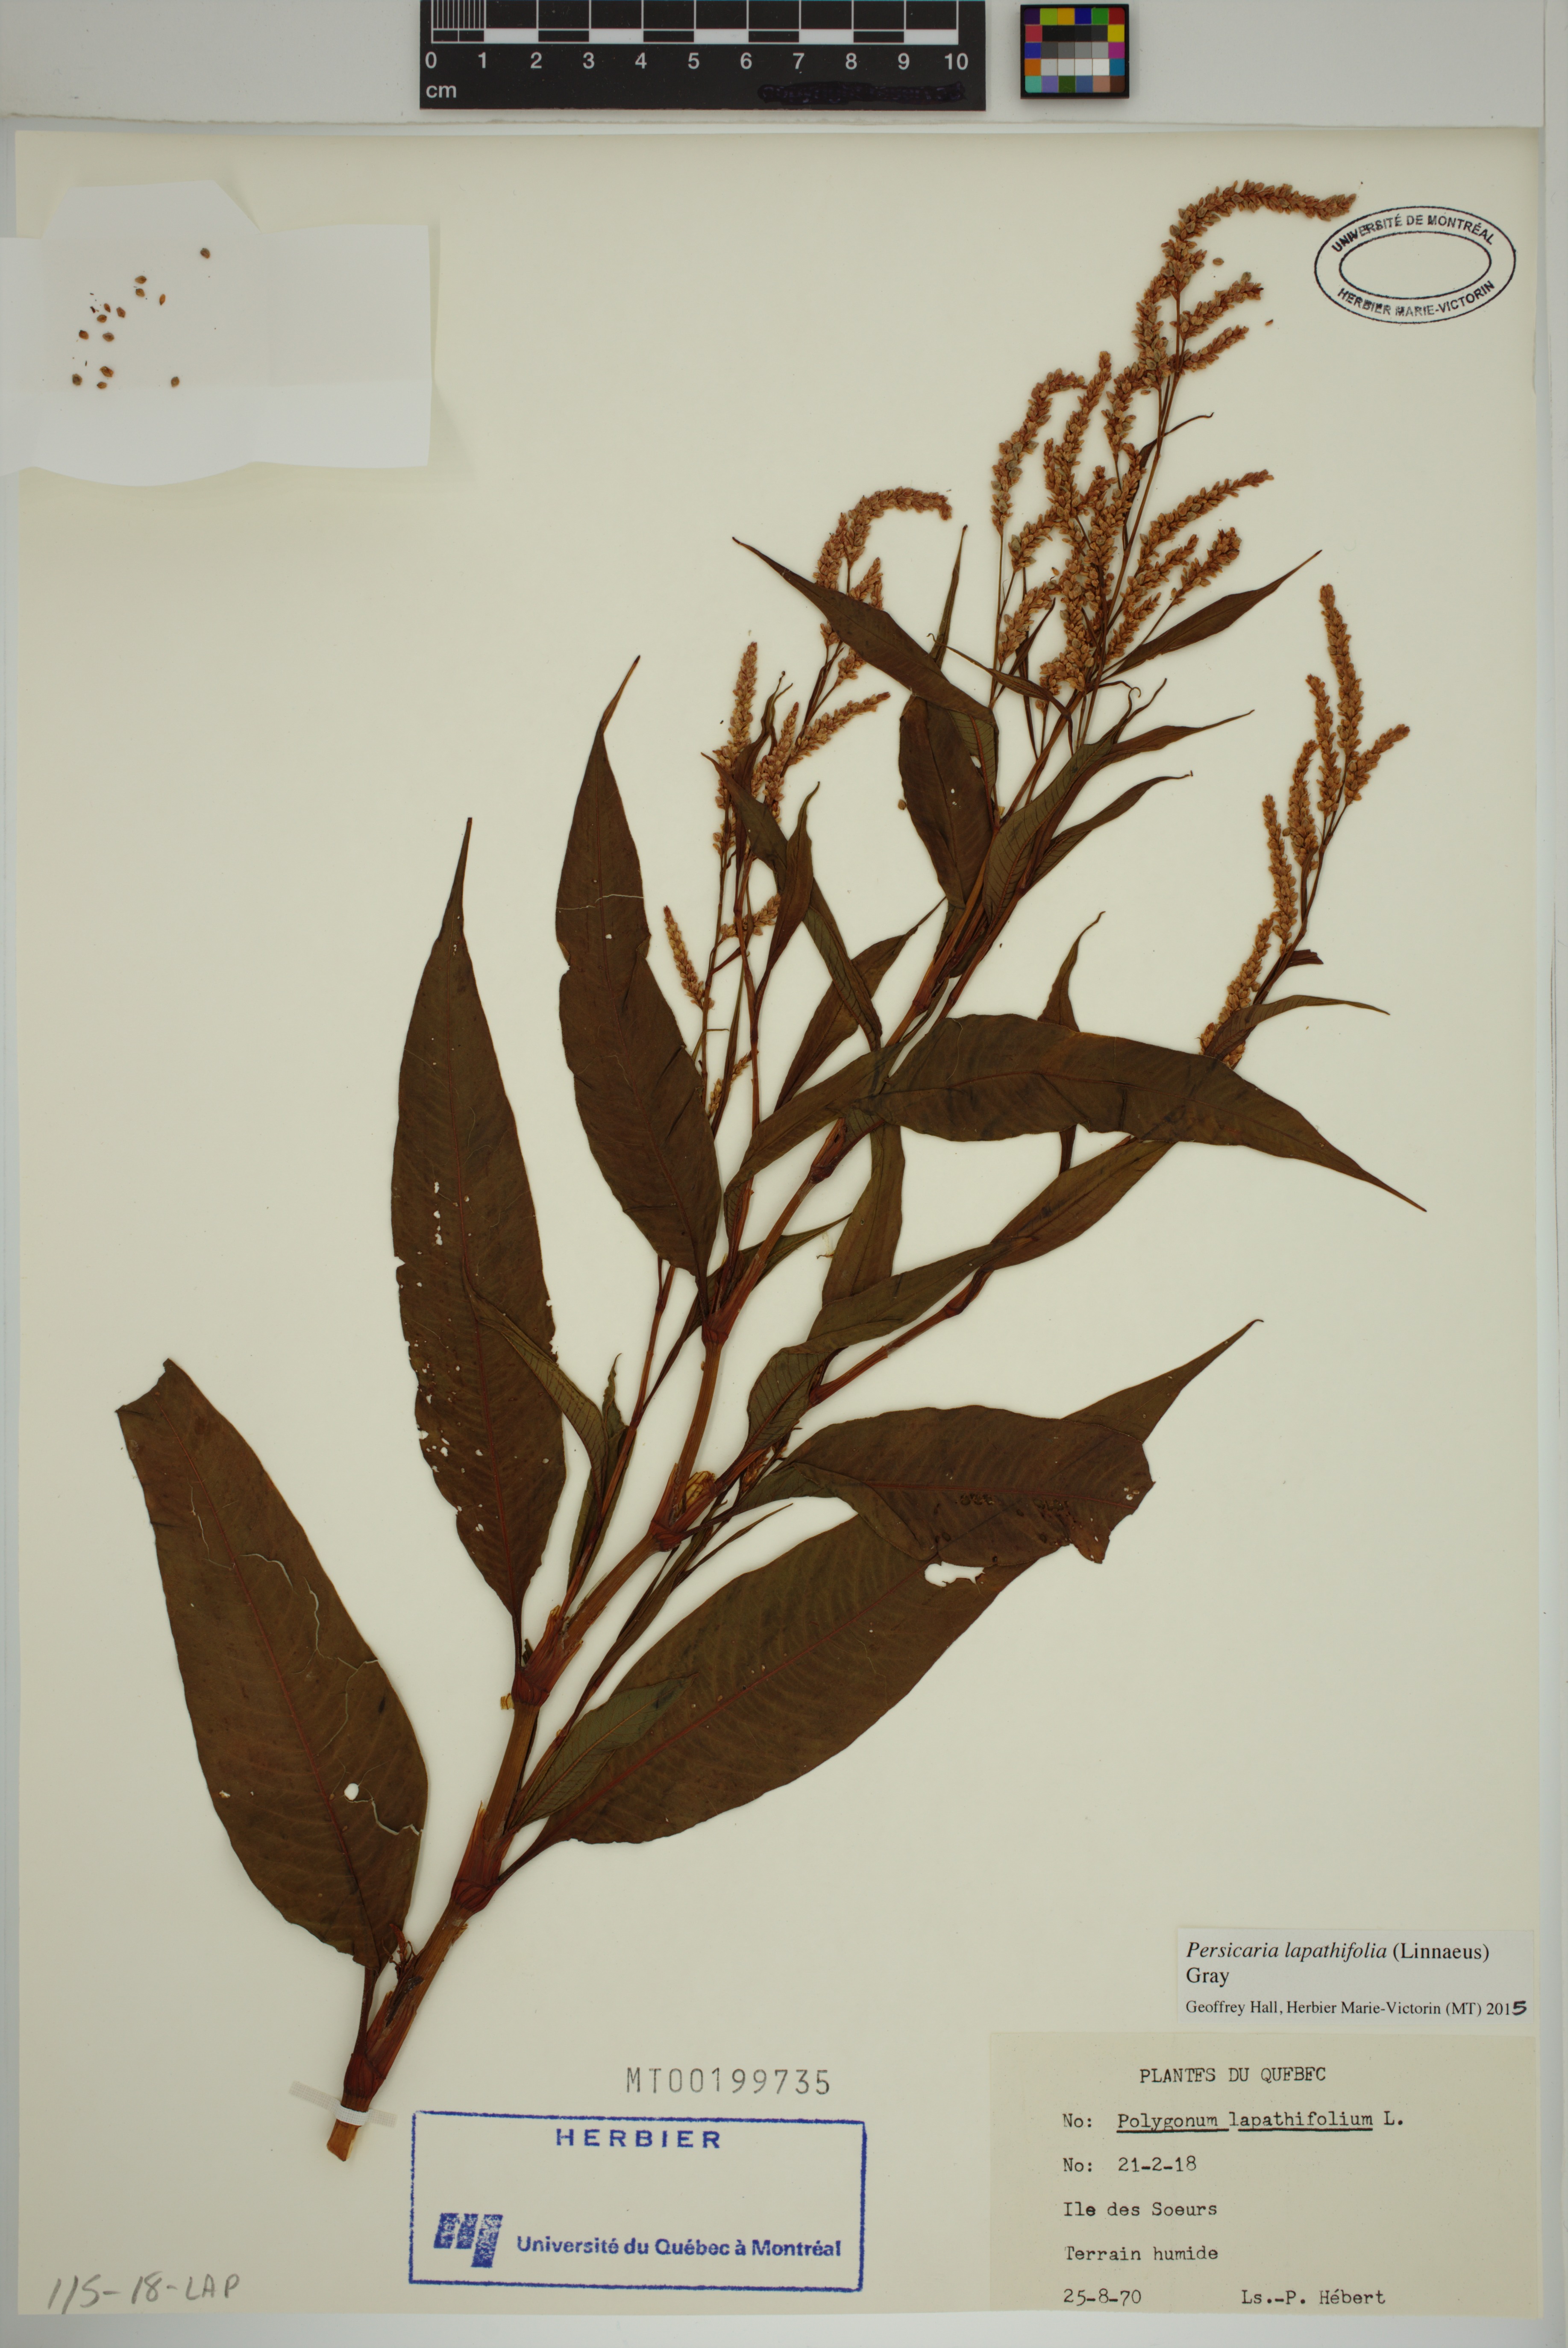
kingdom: Plantae
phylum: Tracheophyta
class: Magnoliopsida
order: Caryophyllales
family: Polygonaceae
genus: Persicaria
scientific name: Persicaria lapathifolia
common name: Curlytop knotweed
